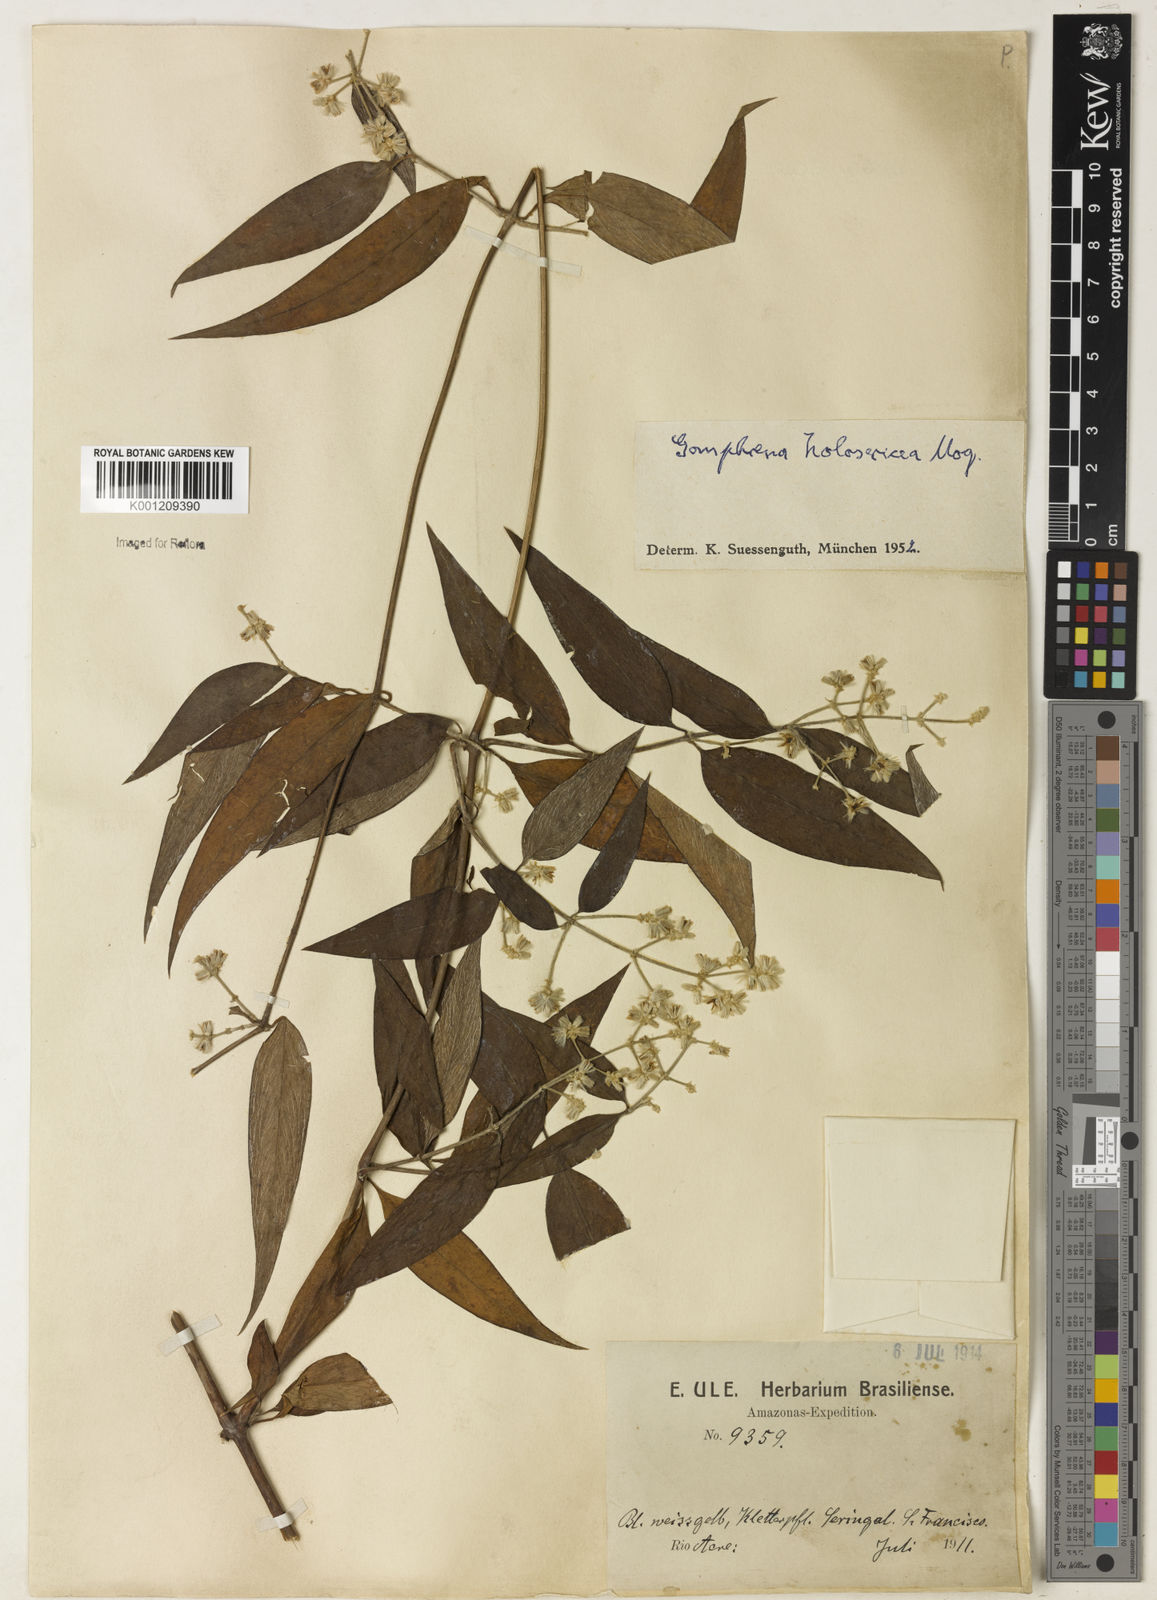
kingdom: Plantae
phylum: Tracheophyta
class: Magnoliopsida
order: Caryophyllales
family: Amaranthaceae
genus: Gomphrena
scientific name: Gomphrena vaga
